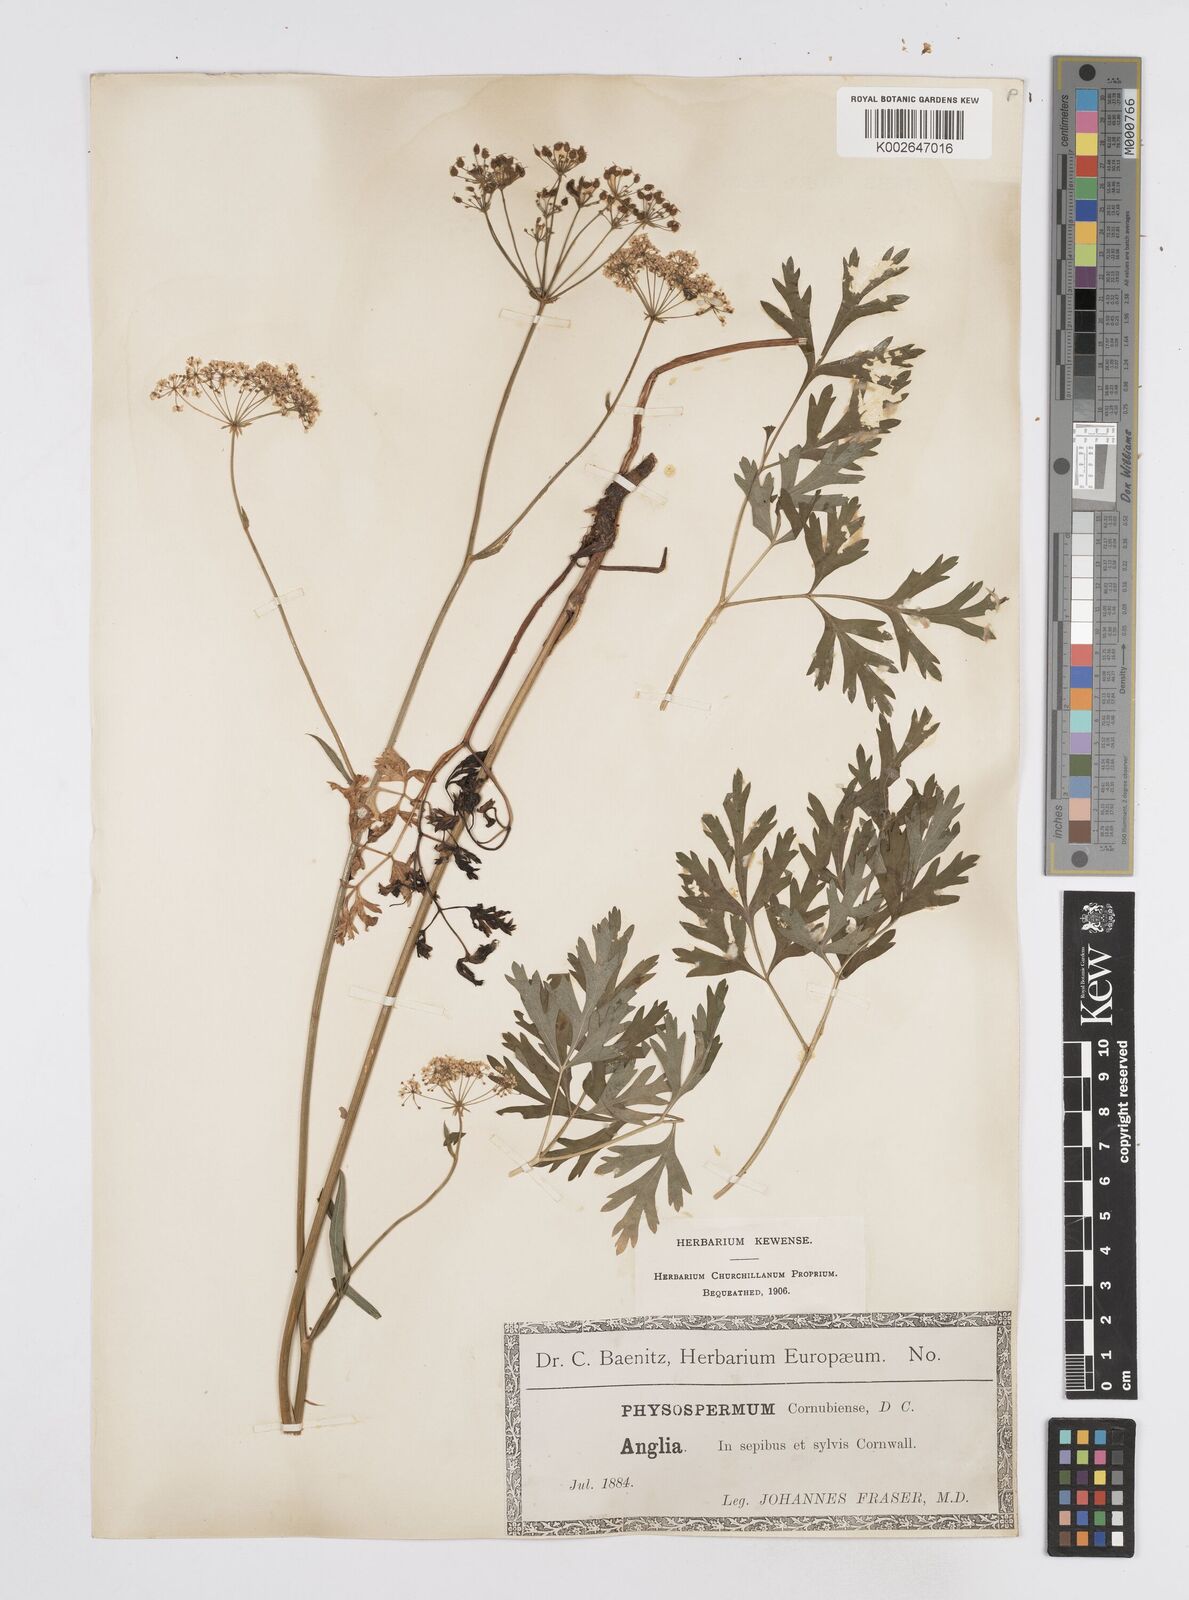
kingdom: Plantae
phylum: Tracheophyta
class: Magnoliopsida
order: Apiales
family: Apiaceae
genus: Physospermum
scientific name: Physospermum cornubiense
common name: Bladderseed
